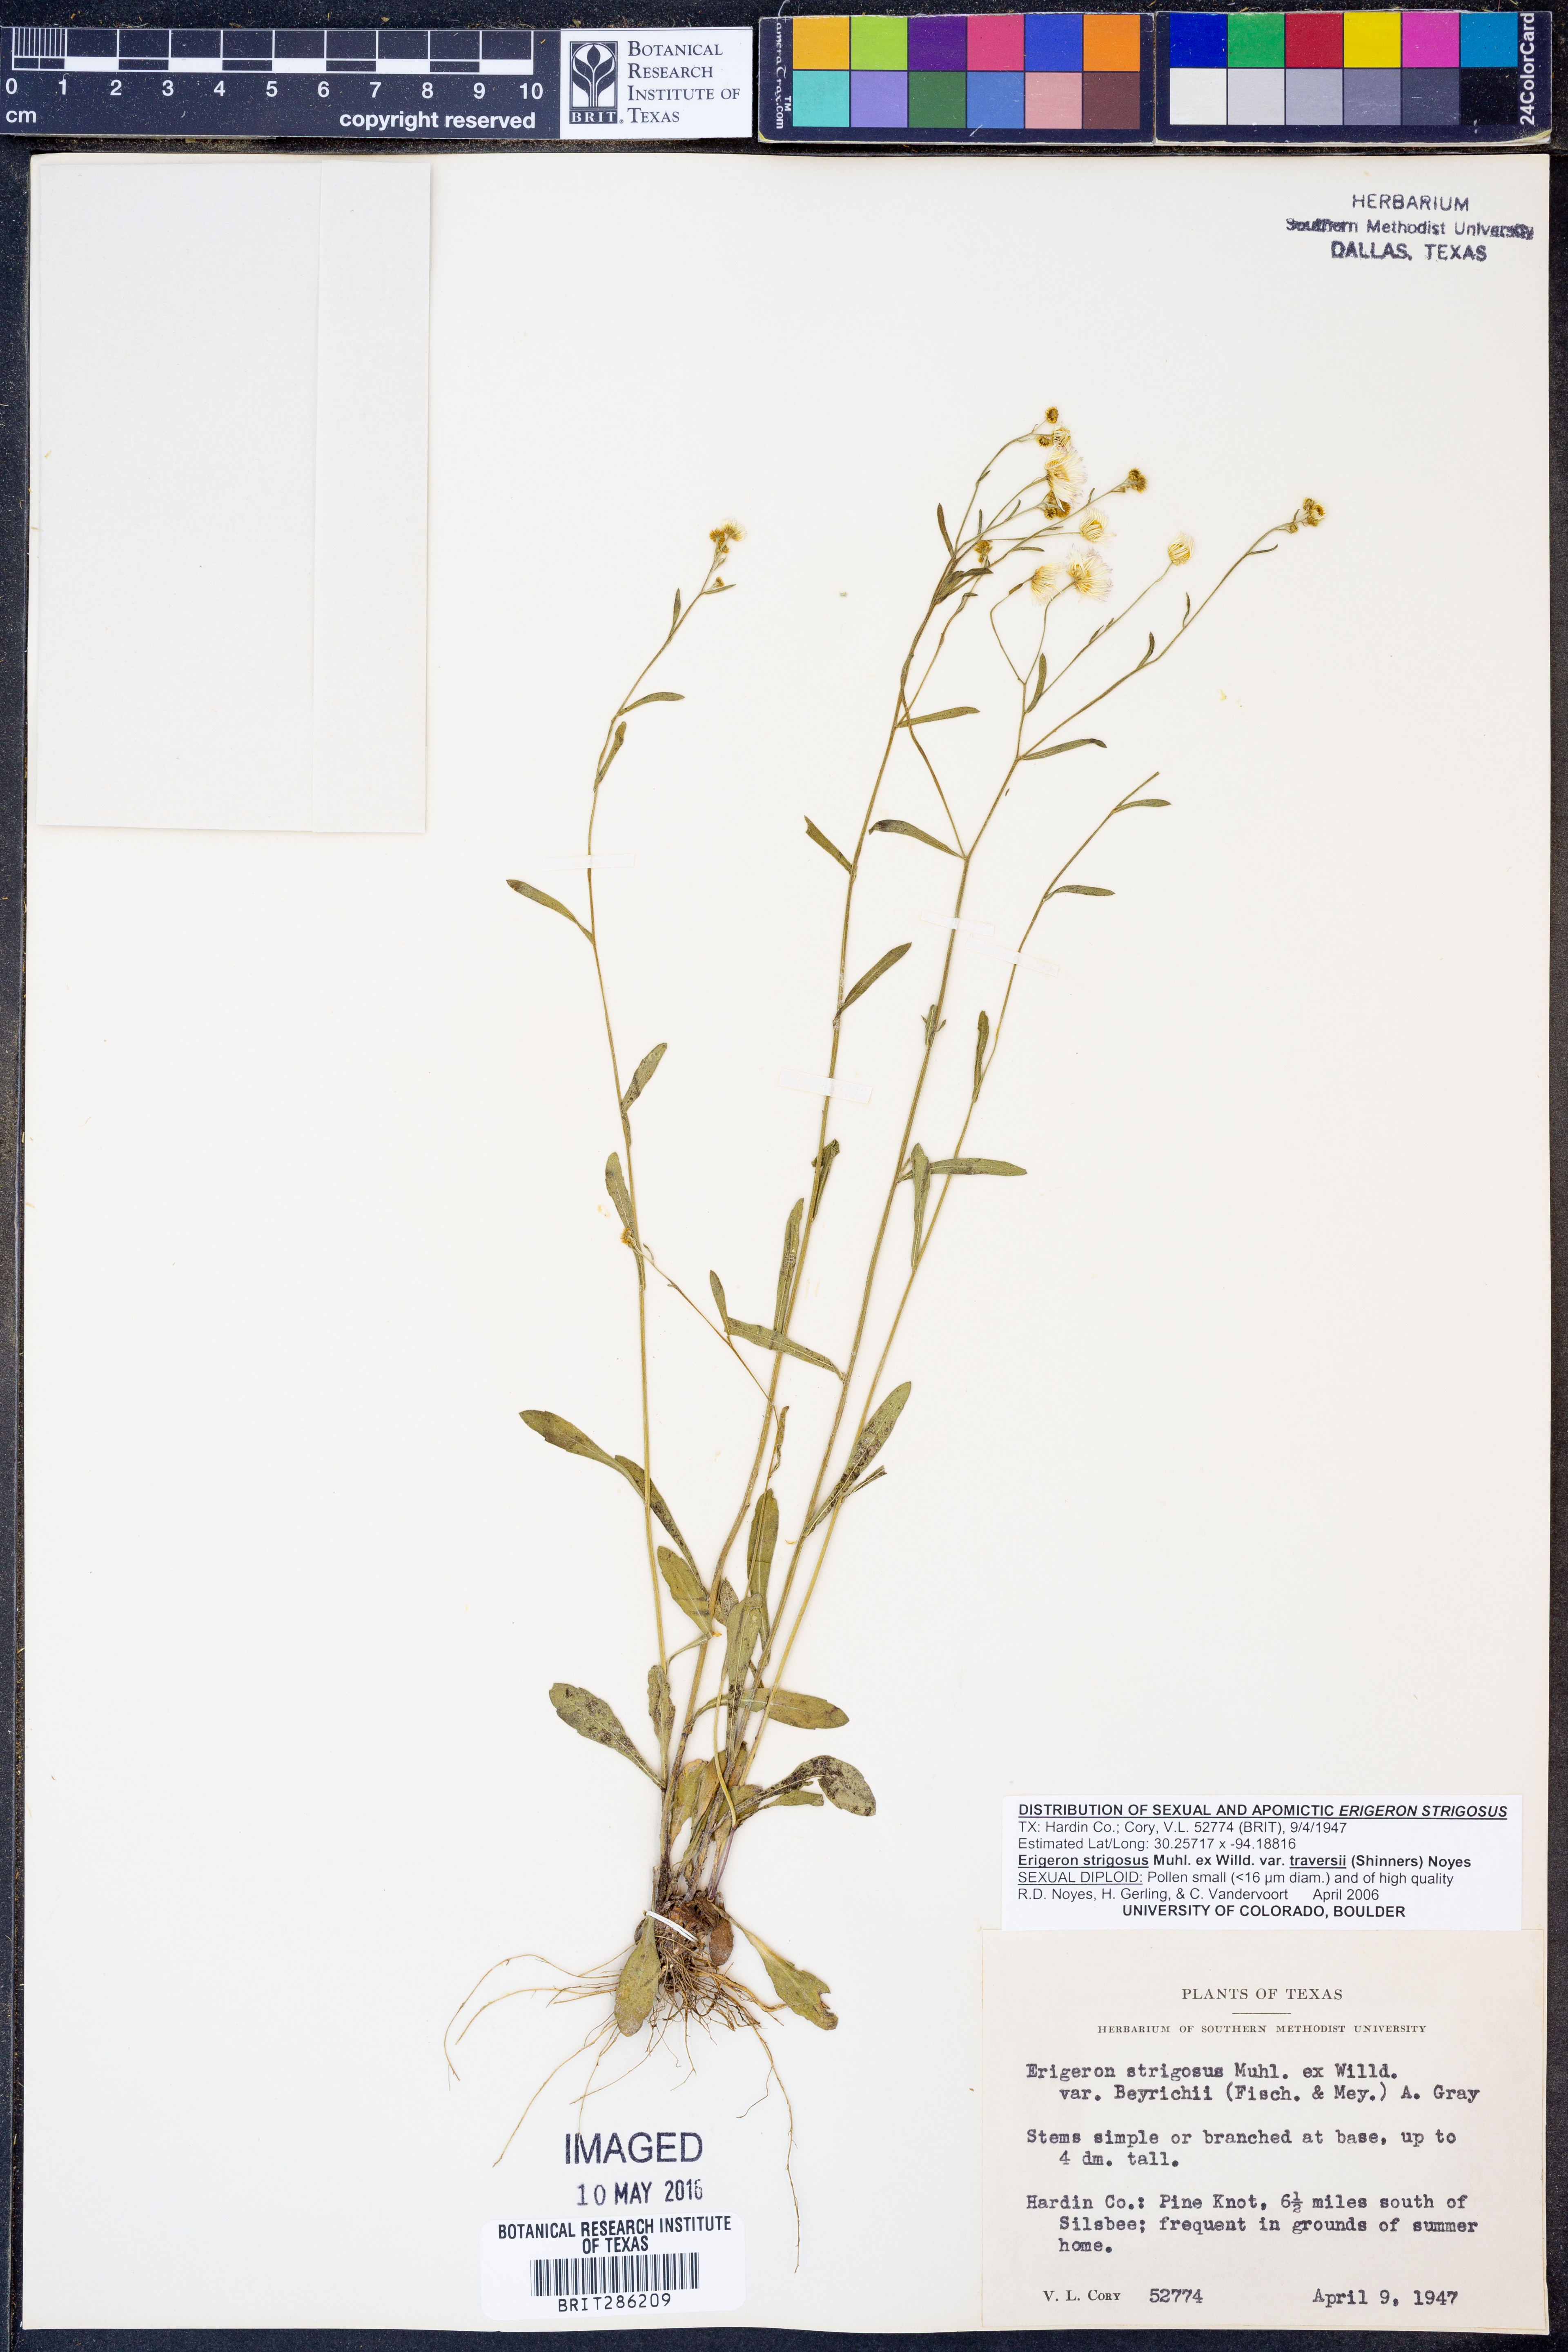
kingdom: Plantae
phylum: Tracheophyta
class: Magnoliopsida
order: Asterales
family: Asteraceae
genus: Erigeron
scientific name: Erigeron annuus
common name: Tall fleabane
